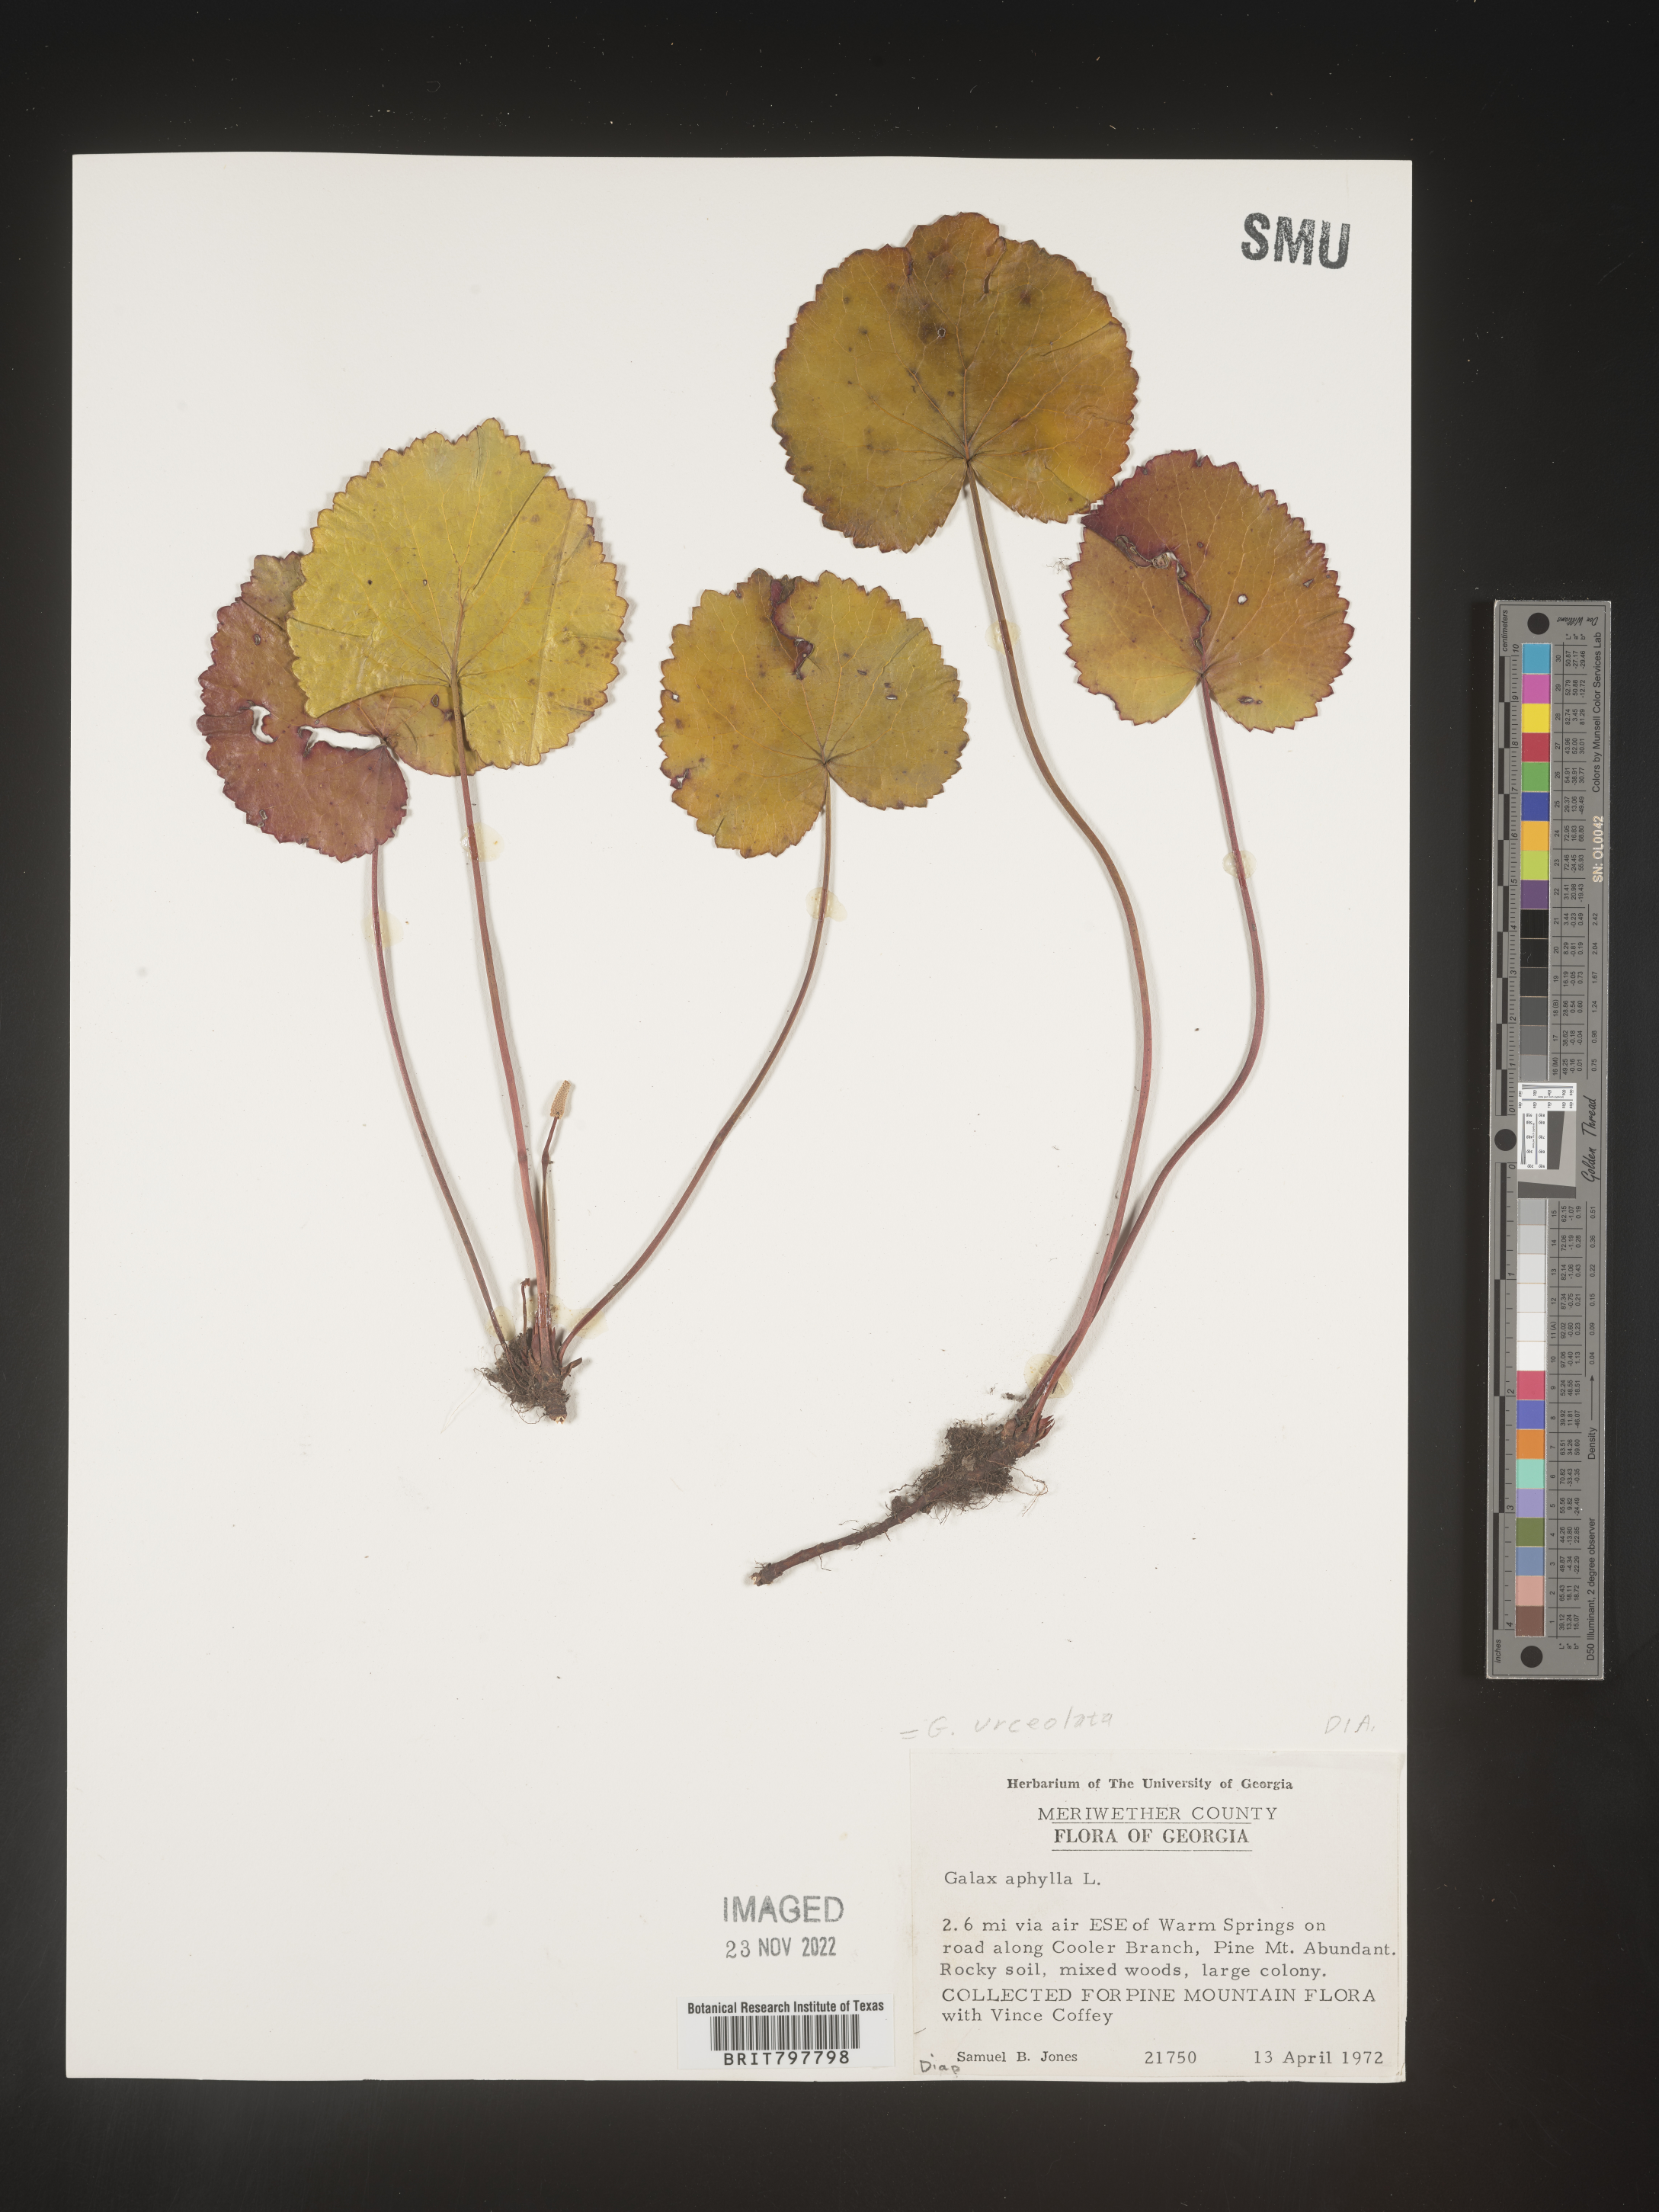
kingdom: Plantae
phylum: Tracheophyta
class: Magnoliopsida
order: Ericales
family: Diapensiaceae
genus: Galax
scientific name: Galax
